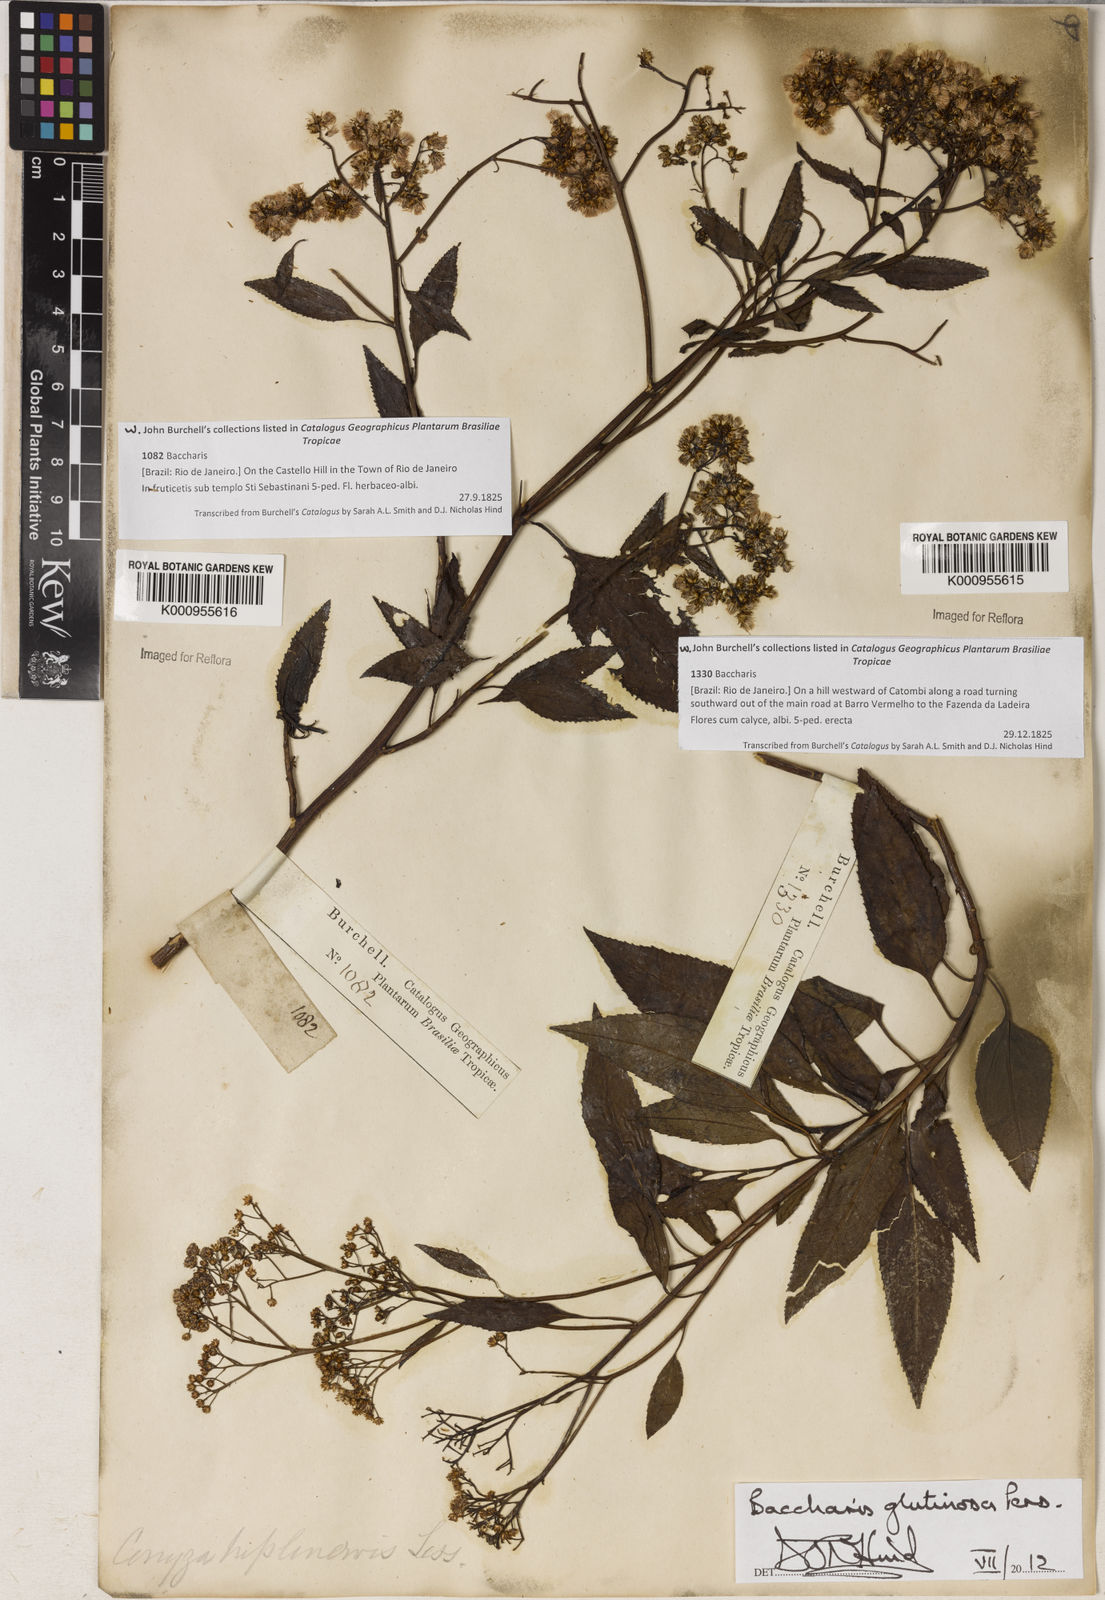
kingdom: Plantae
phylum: Tracheophyta
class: Magnoliopsida
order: Asterales
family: Asteraceae
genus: Baccharis
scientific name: Baccharis glutinosa
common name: Saltmarsh baccharis
